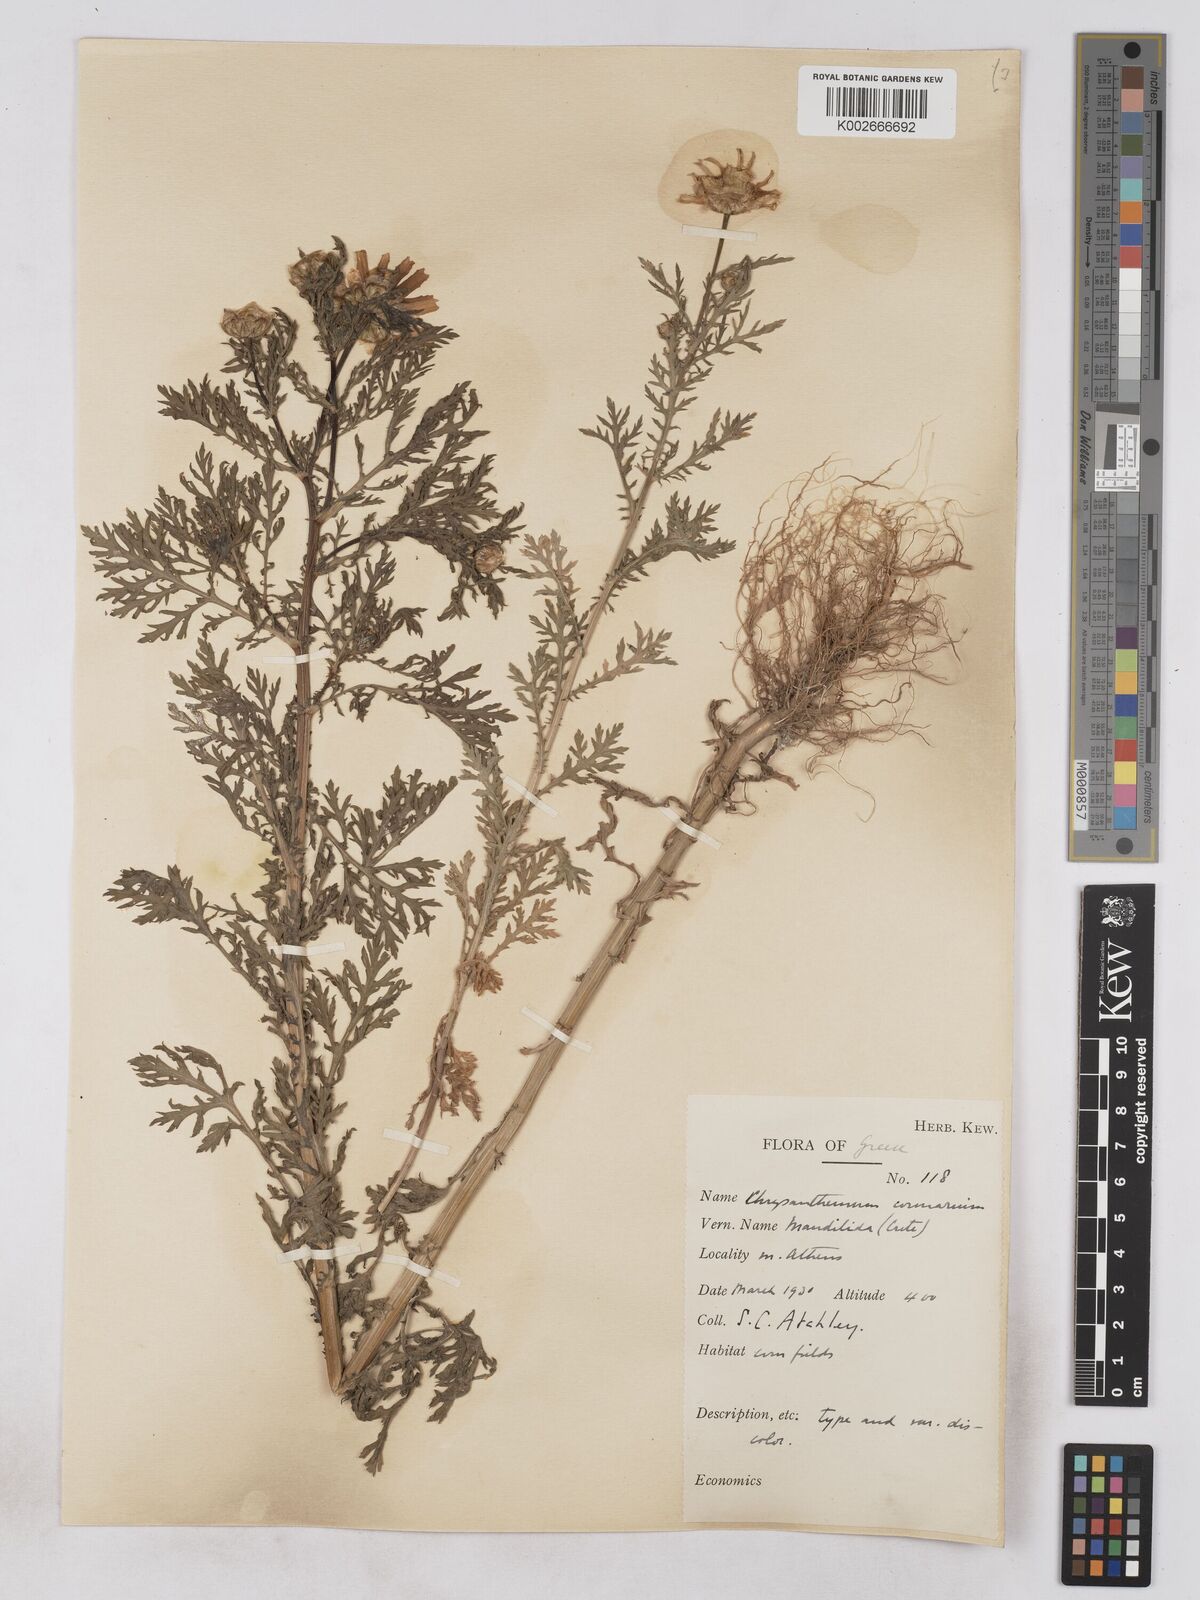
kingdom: Plantae
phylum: Tracheophyta
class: Magnoliopsida
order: Asterales
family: Asteraceae
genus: Glebionis
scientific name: Glebionis coronaria
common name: Crowndaisy
